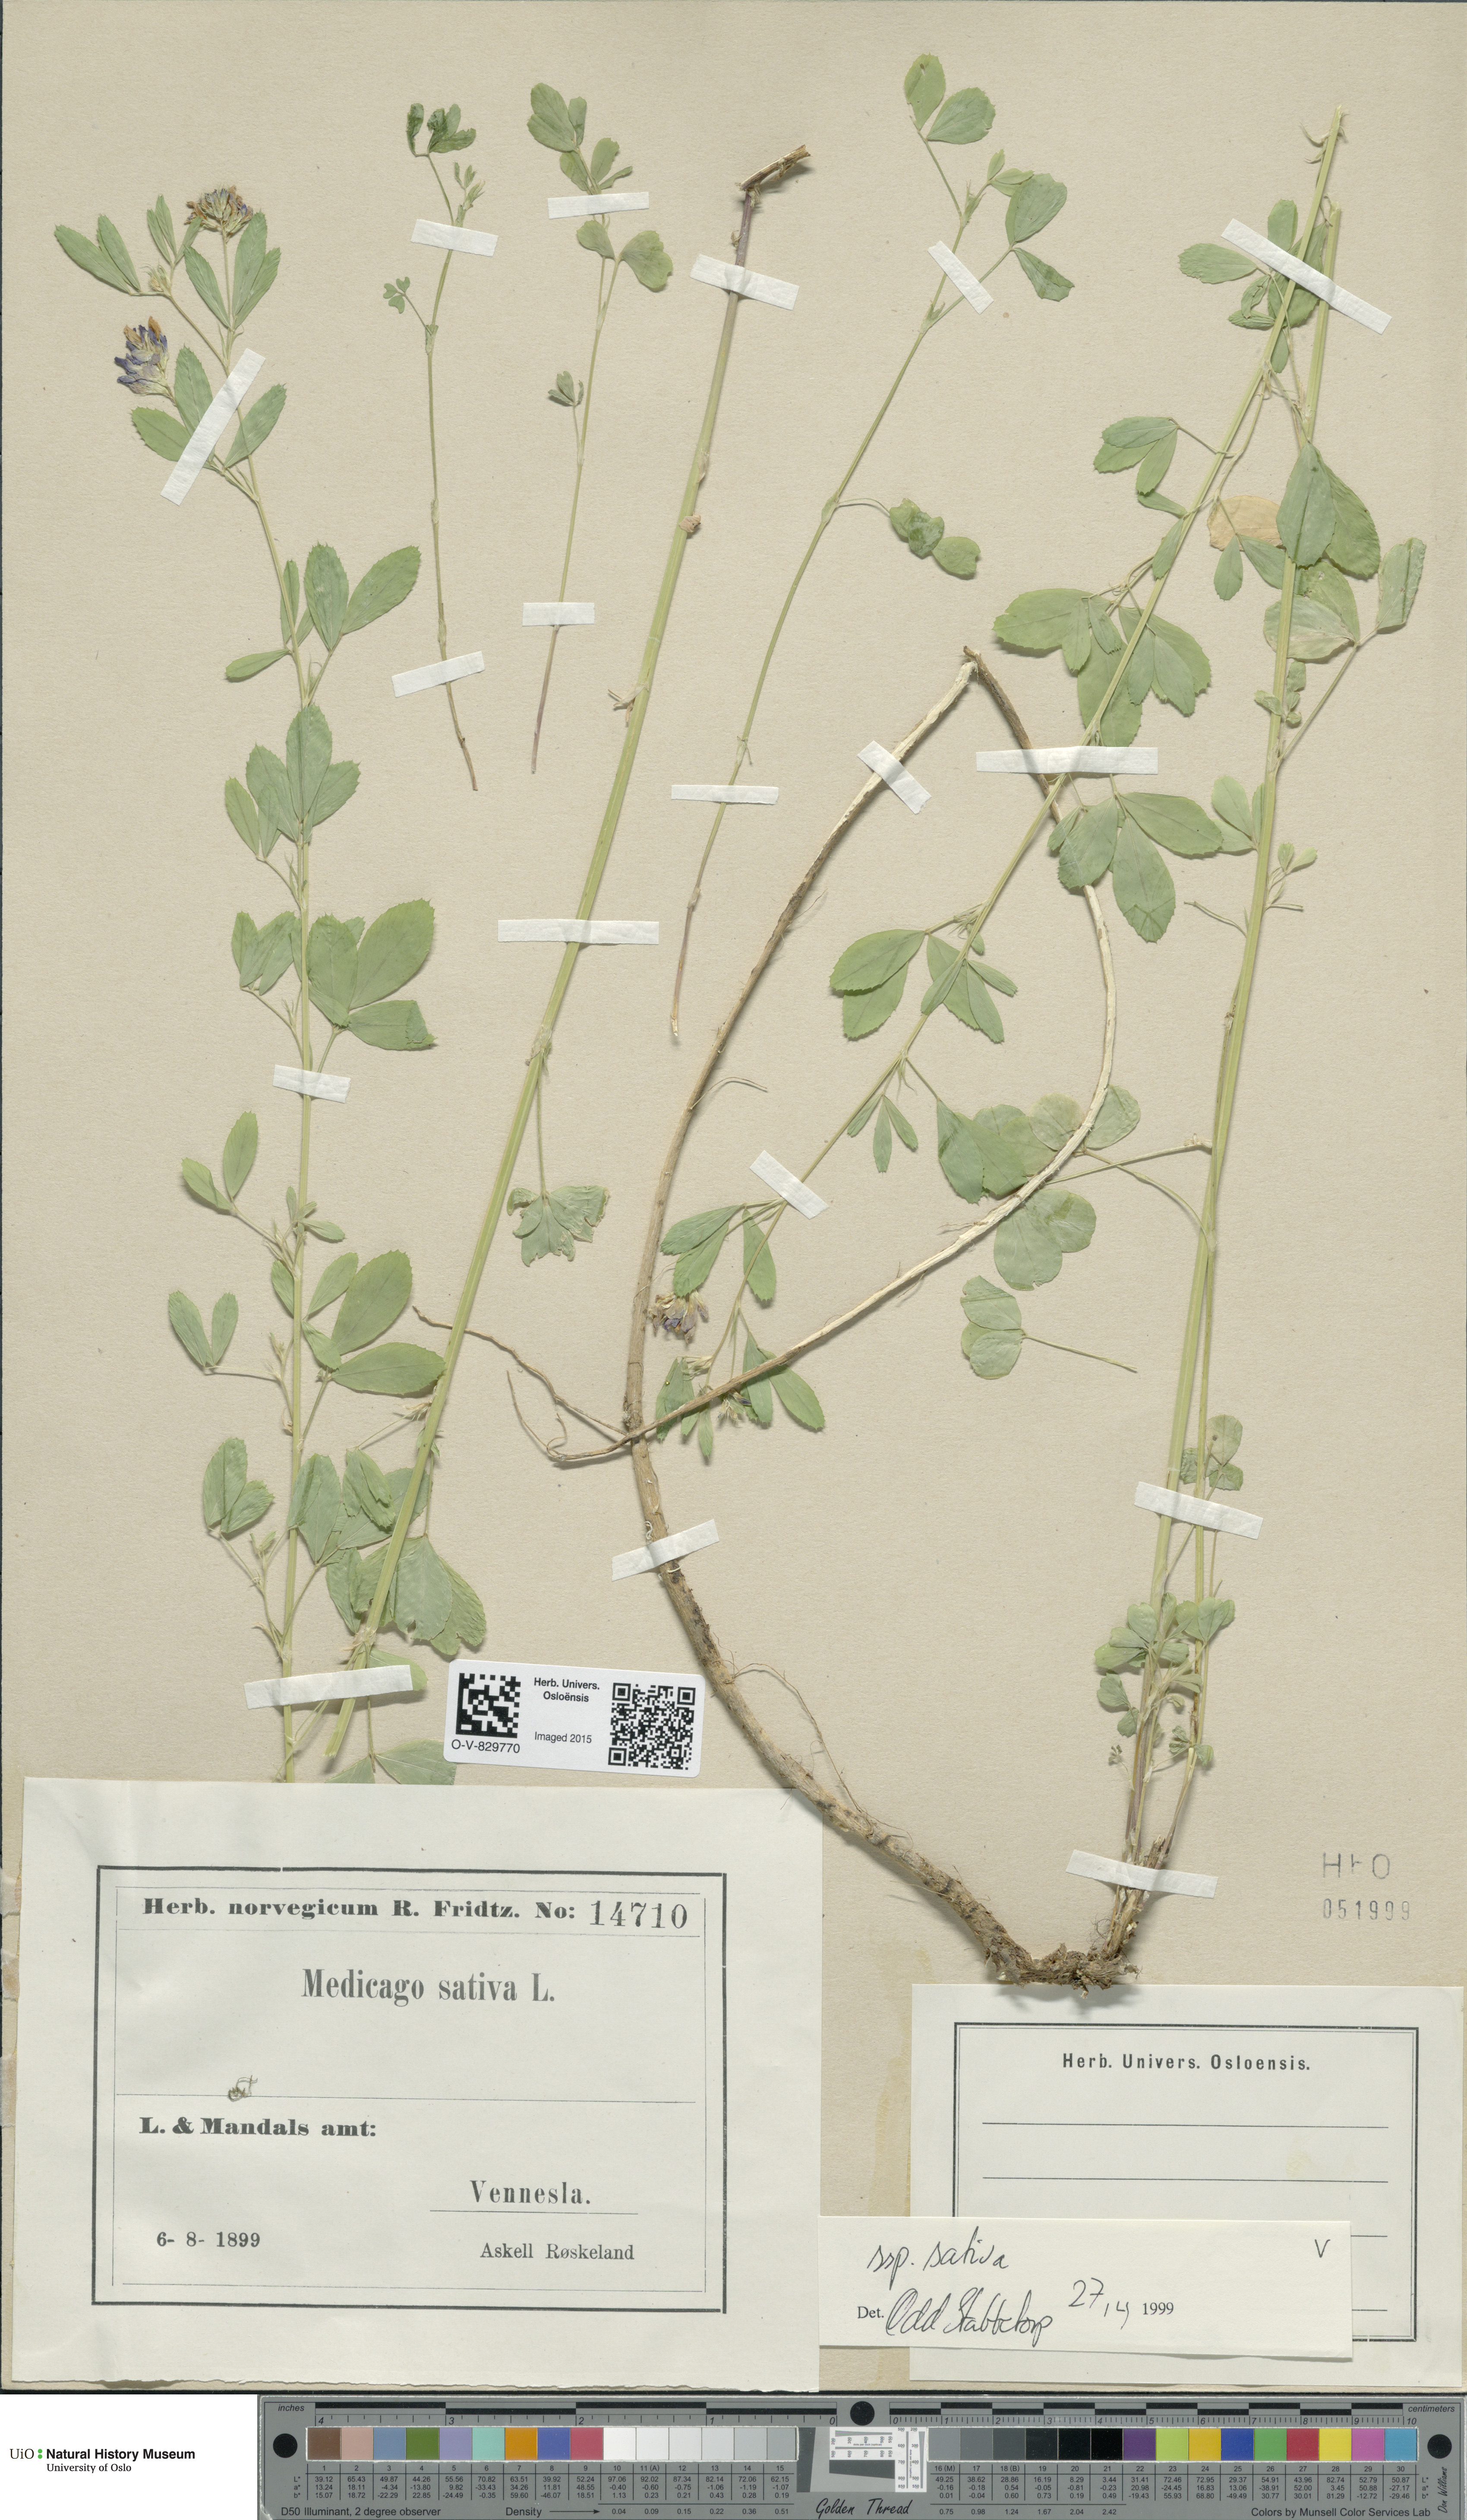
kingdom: Plantae
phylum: Tracheophyta
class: Magnoliopsida
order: Fabales
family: Fabaceae
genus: Medicago
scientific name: Medicago sativa
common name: Alfalfa
